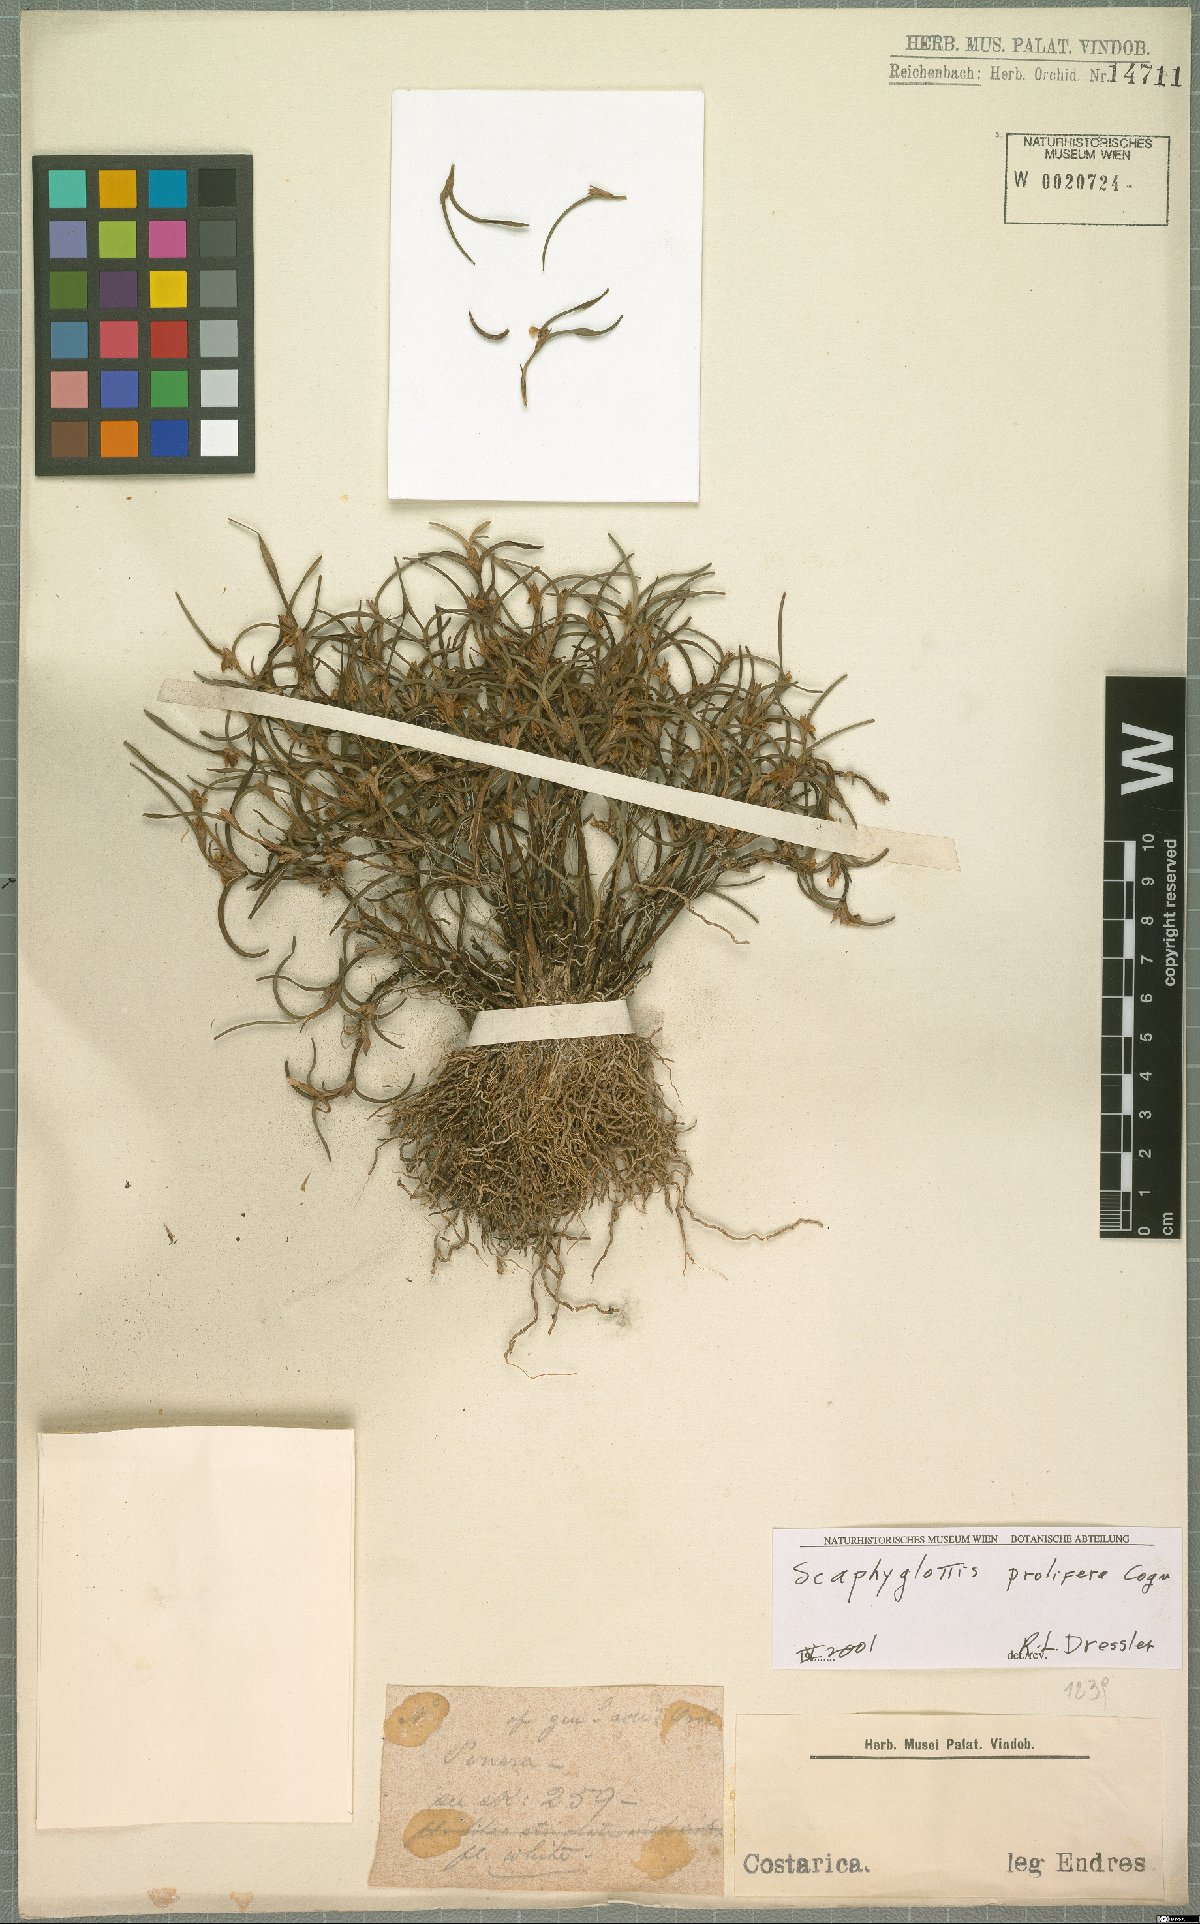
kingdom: Plantae
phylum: Tracheophyta
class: Liliopsida
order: Asparagales
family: Orchidaceae
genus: Scaphyglottis
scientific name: Scaphyglottis prolifera
